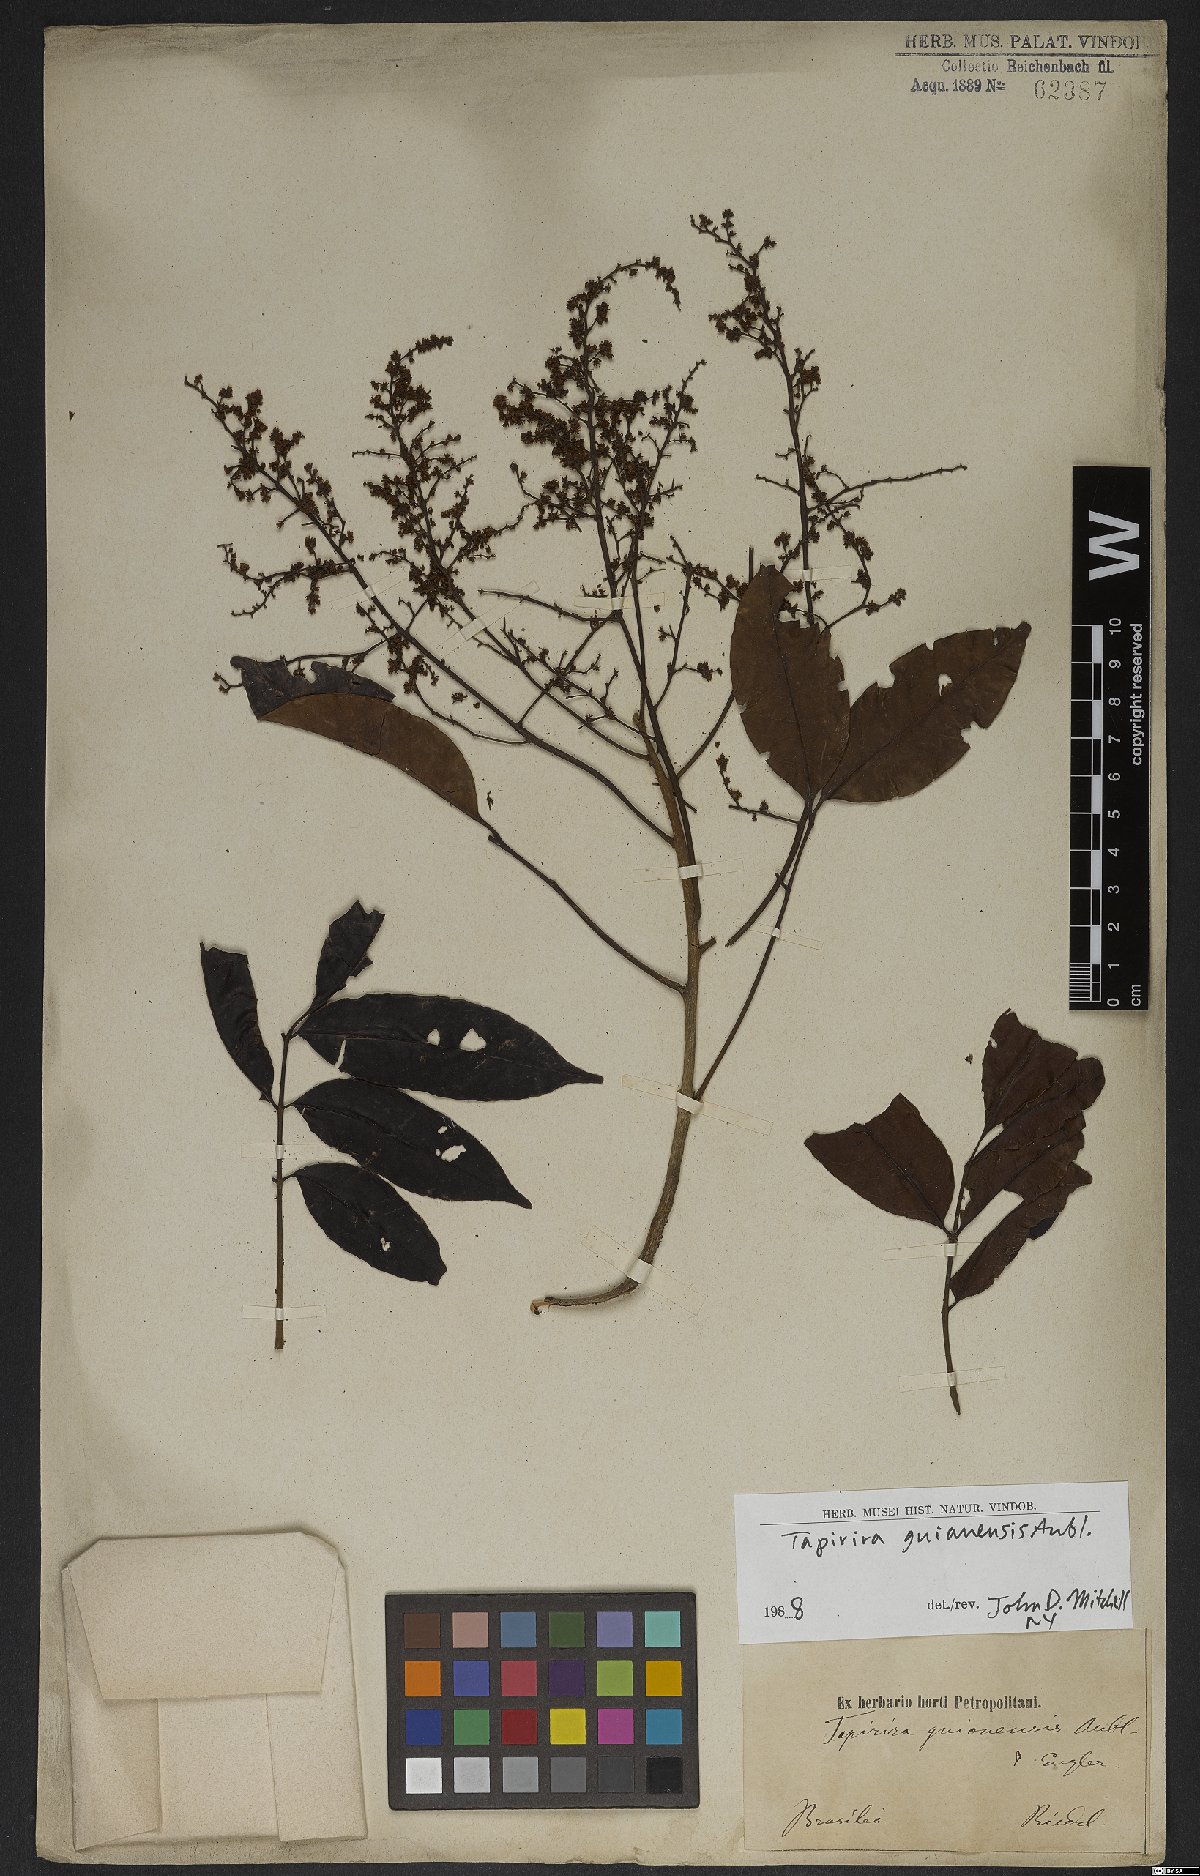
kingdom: Plantae
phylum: Tracheophyta
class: Magnoliopsida
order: Sapindales
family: Anacardiaceae
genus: Tapirira
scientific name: Tapirira guianensis
